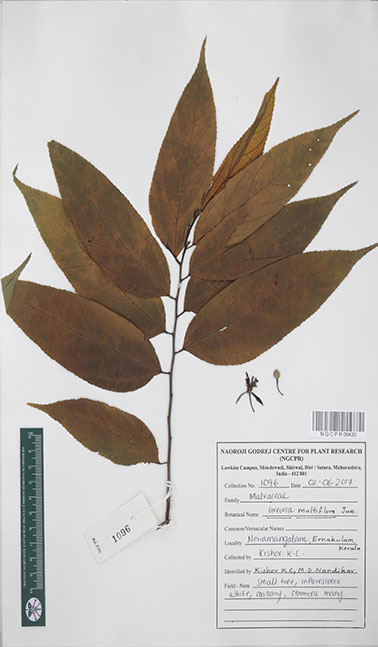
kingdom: Plantae
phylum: Tracheophyta
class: Magnoliopsida
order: Malvales
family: Malvaceae
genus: Grewia
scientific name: Grewia multiflora
